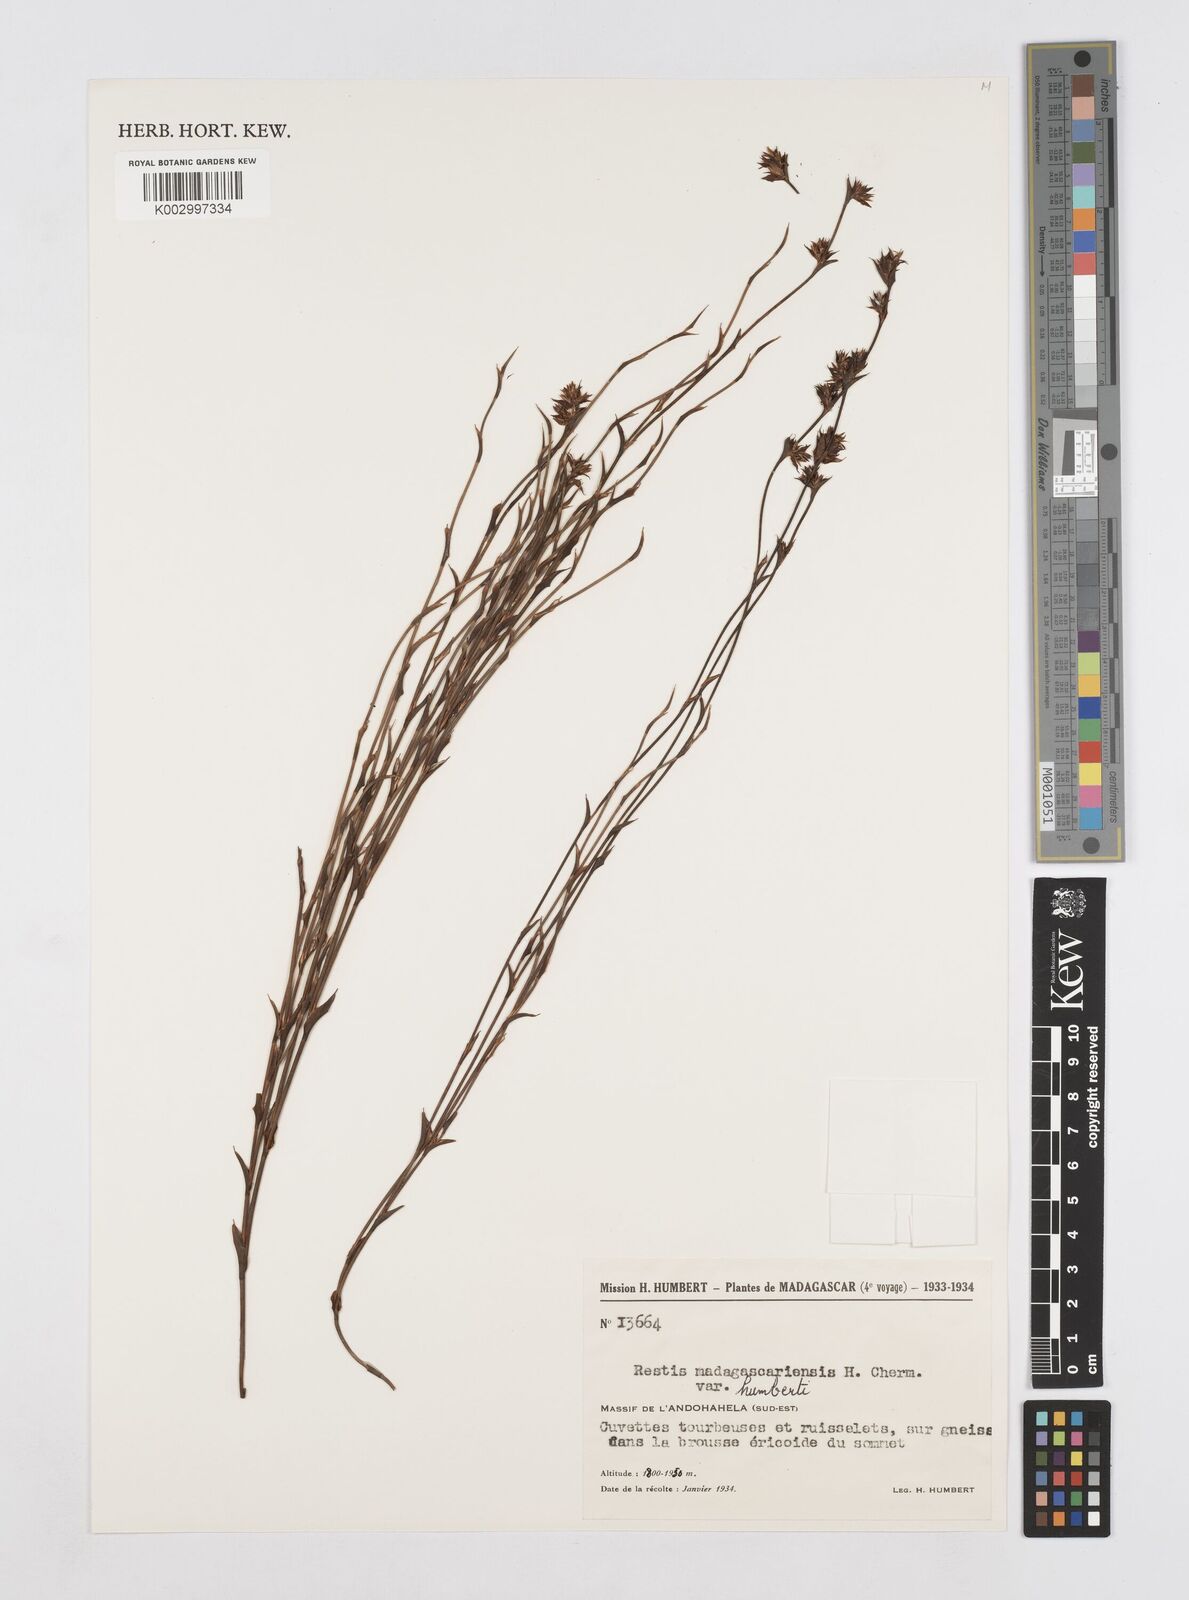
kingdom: Plantae
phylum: Tracheophyta
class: Liliopsida
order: Poales
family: Restionaceae
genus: Platycaulos
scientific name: Platycaulos
